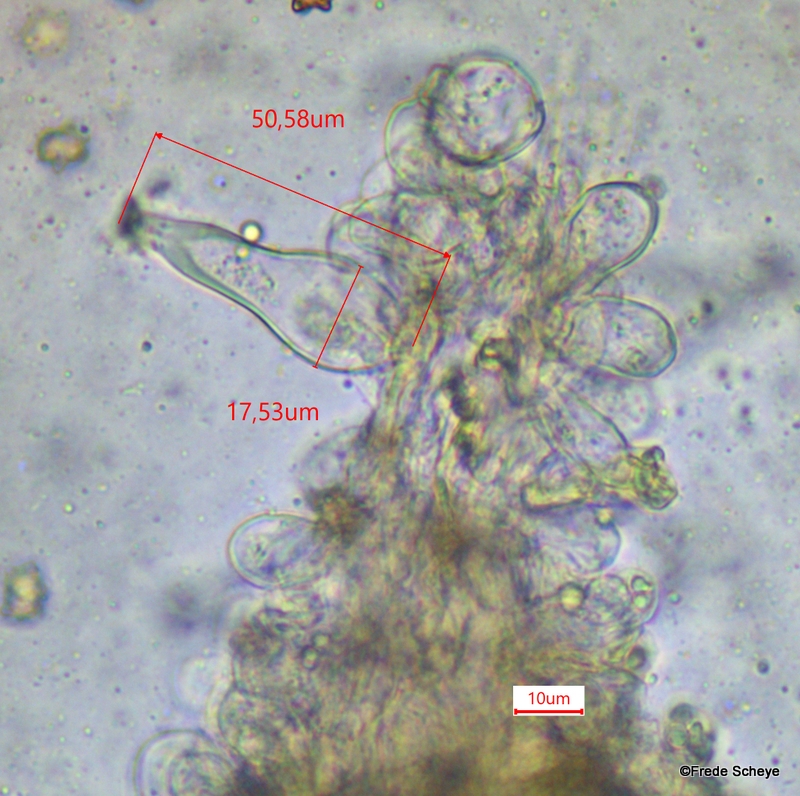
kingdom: Fungi
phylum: Basidiomycota
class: Agaricomycetes
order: Agaricales
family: Inocybaceae
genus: Inocybe
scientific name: Inocybe asterospora
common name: stjernesporet trævlhat
